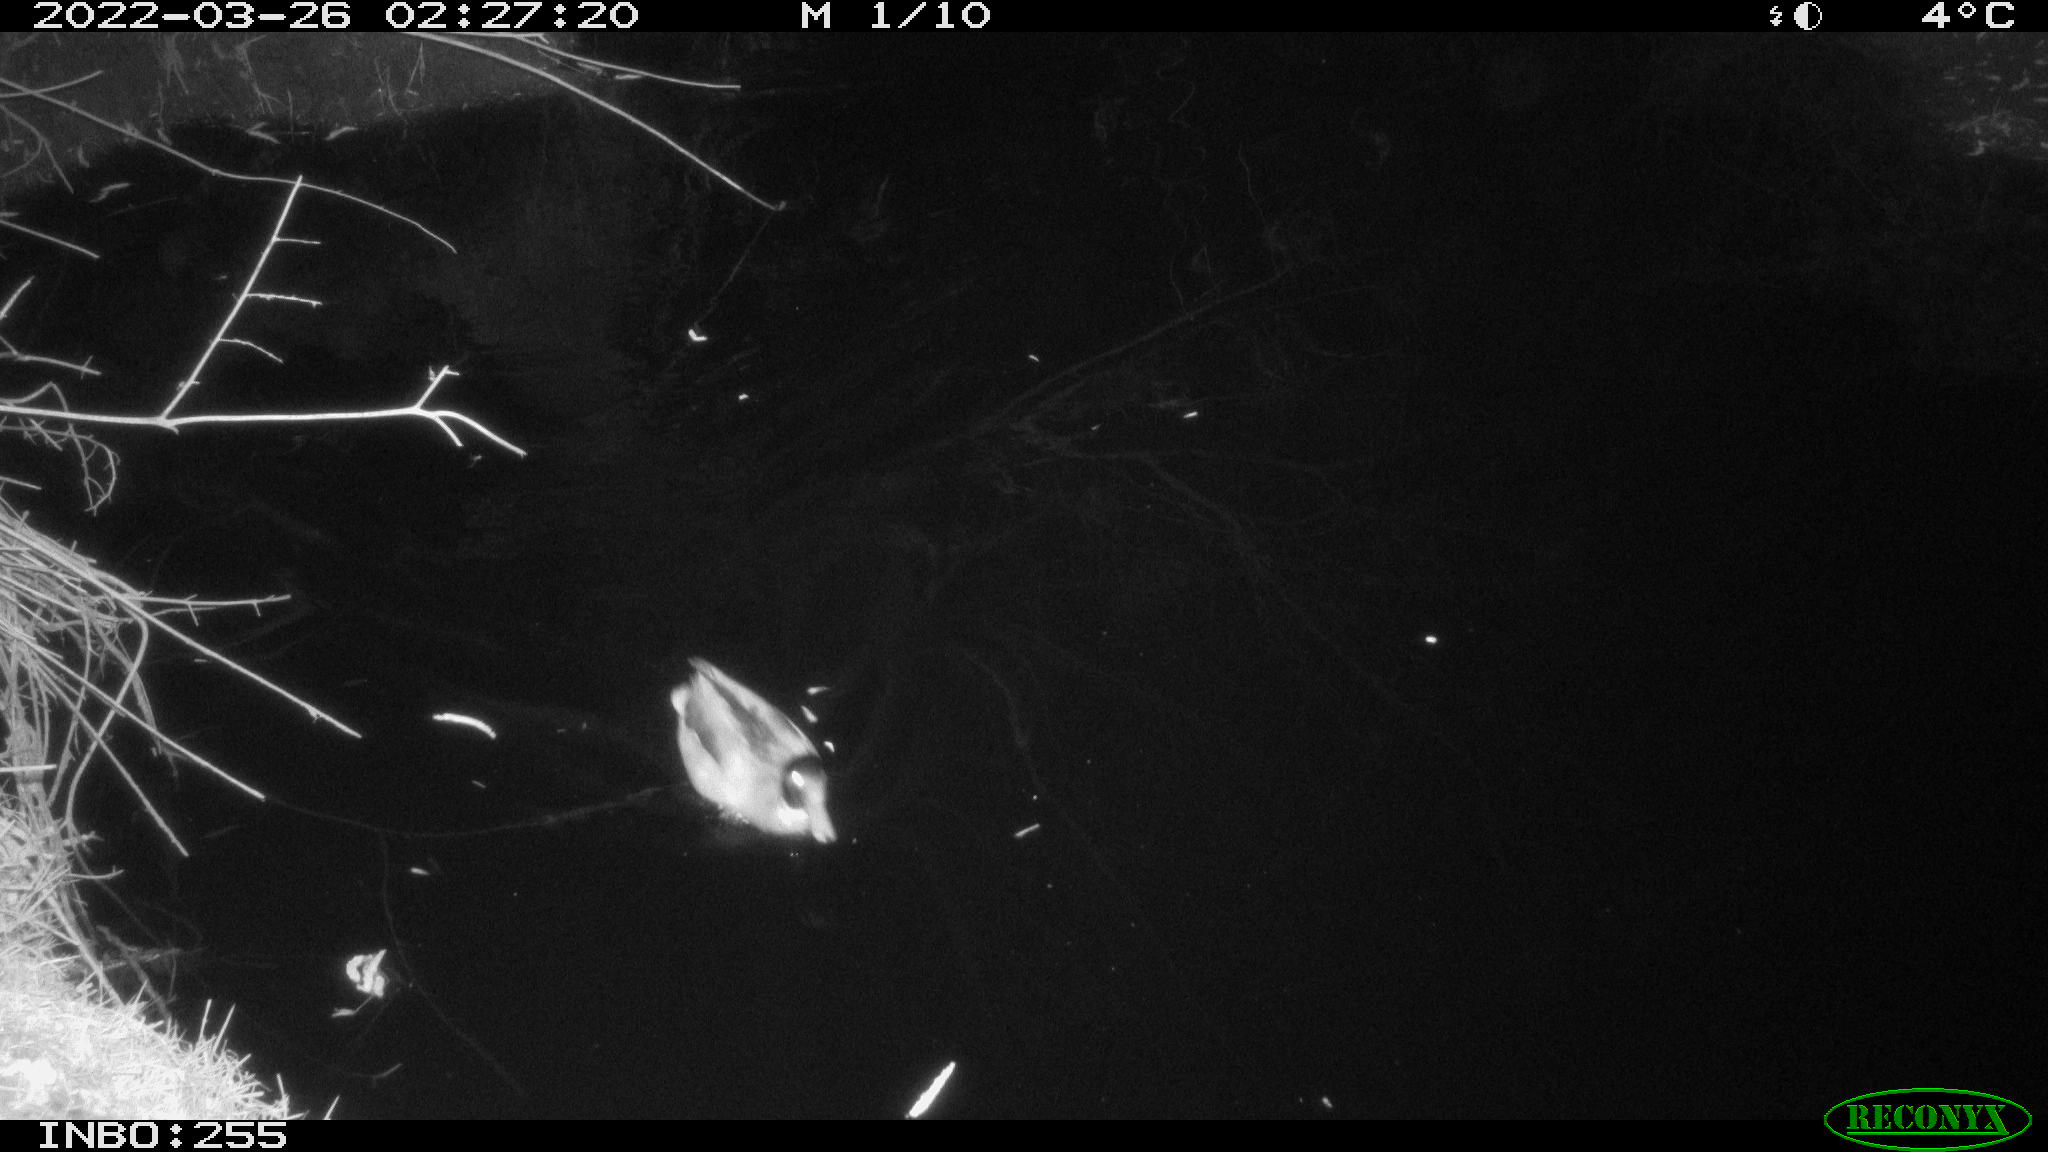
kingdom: Animalia
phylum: Chordata
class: Aves
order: Anseriformes
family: Anatidae
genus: Anas
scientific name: Anas platyrhynchos
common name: Mallard
